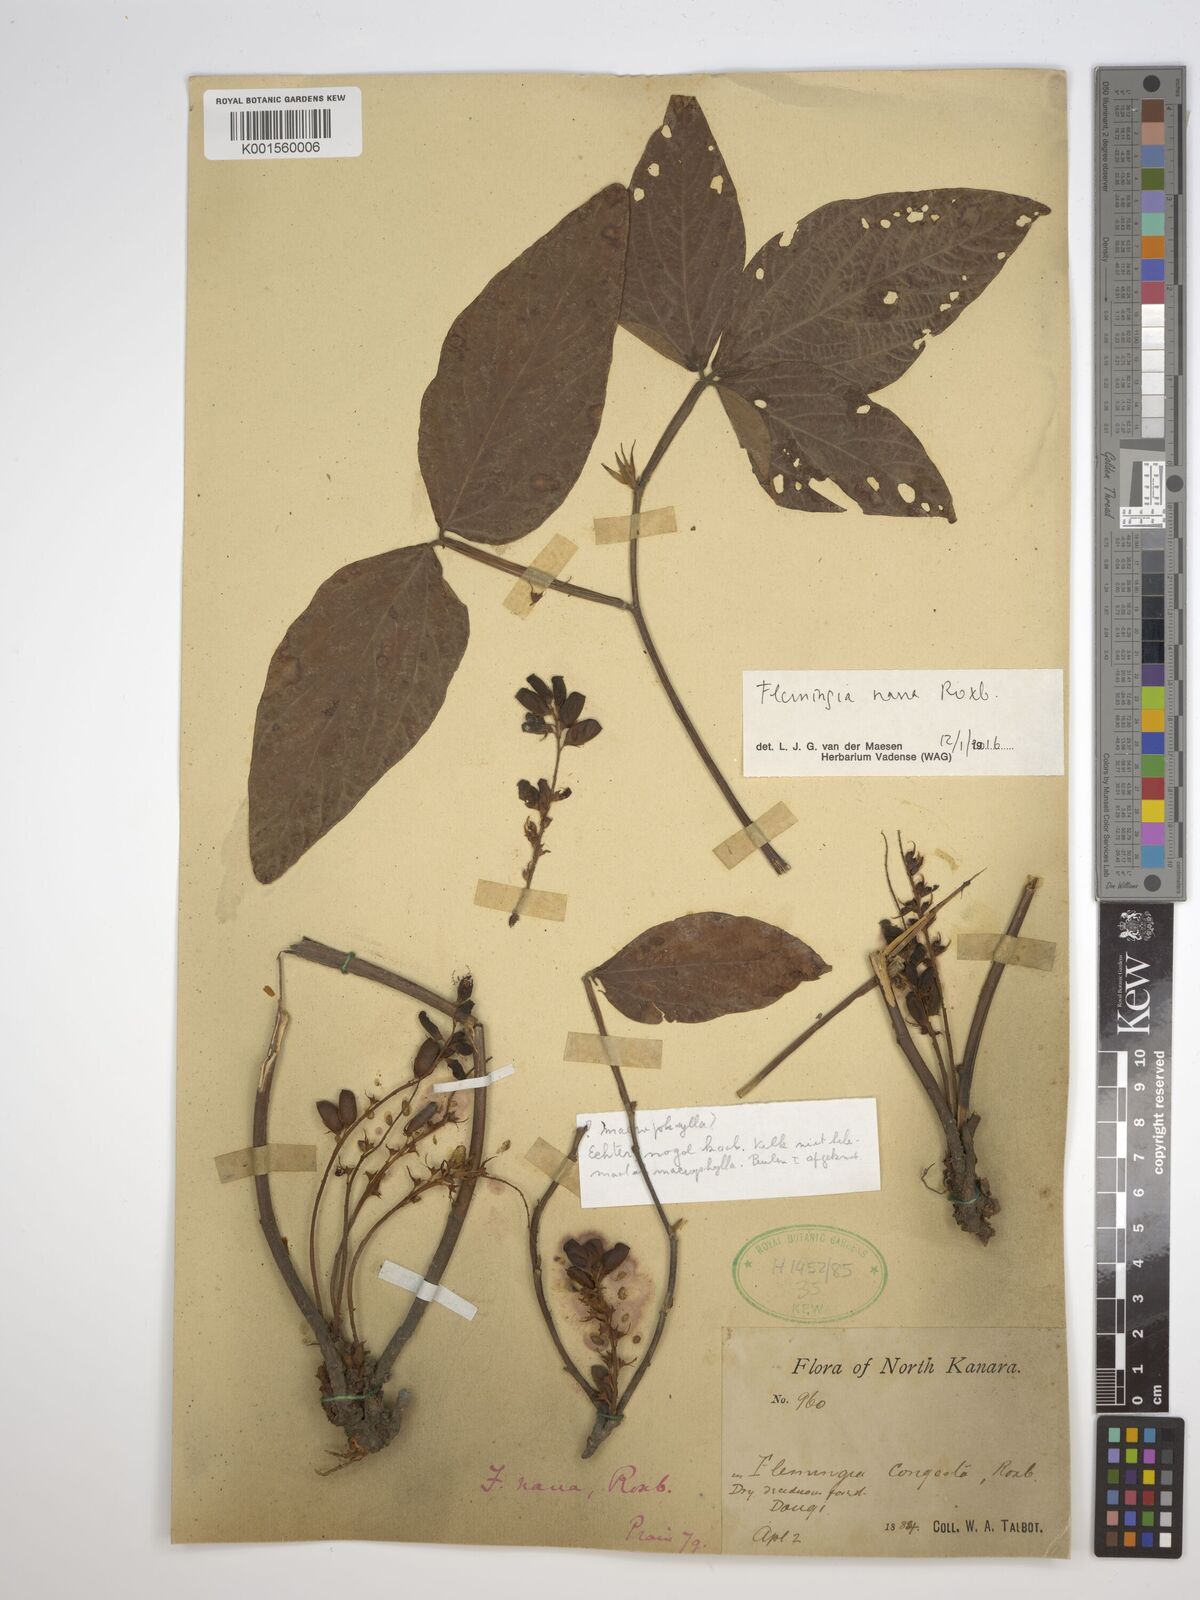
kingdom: Plantae
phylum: Tracheophyta
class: Magnoliopsida
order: Fabales
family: Fabaceae
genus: Flemingia
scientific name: Flemingia nana
